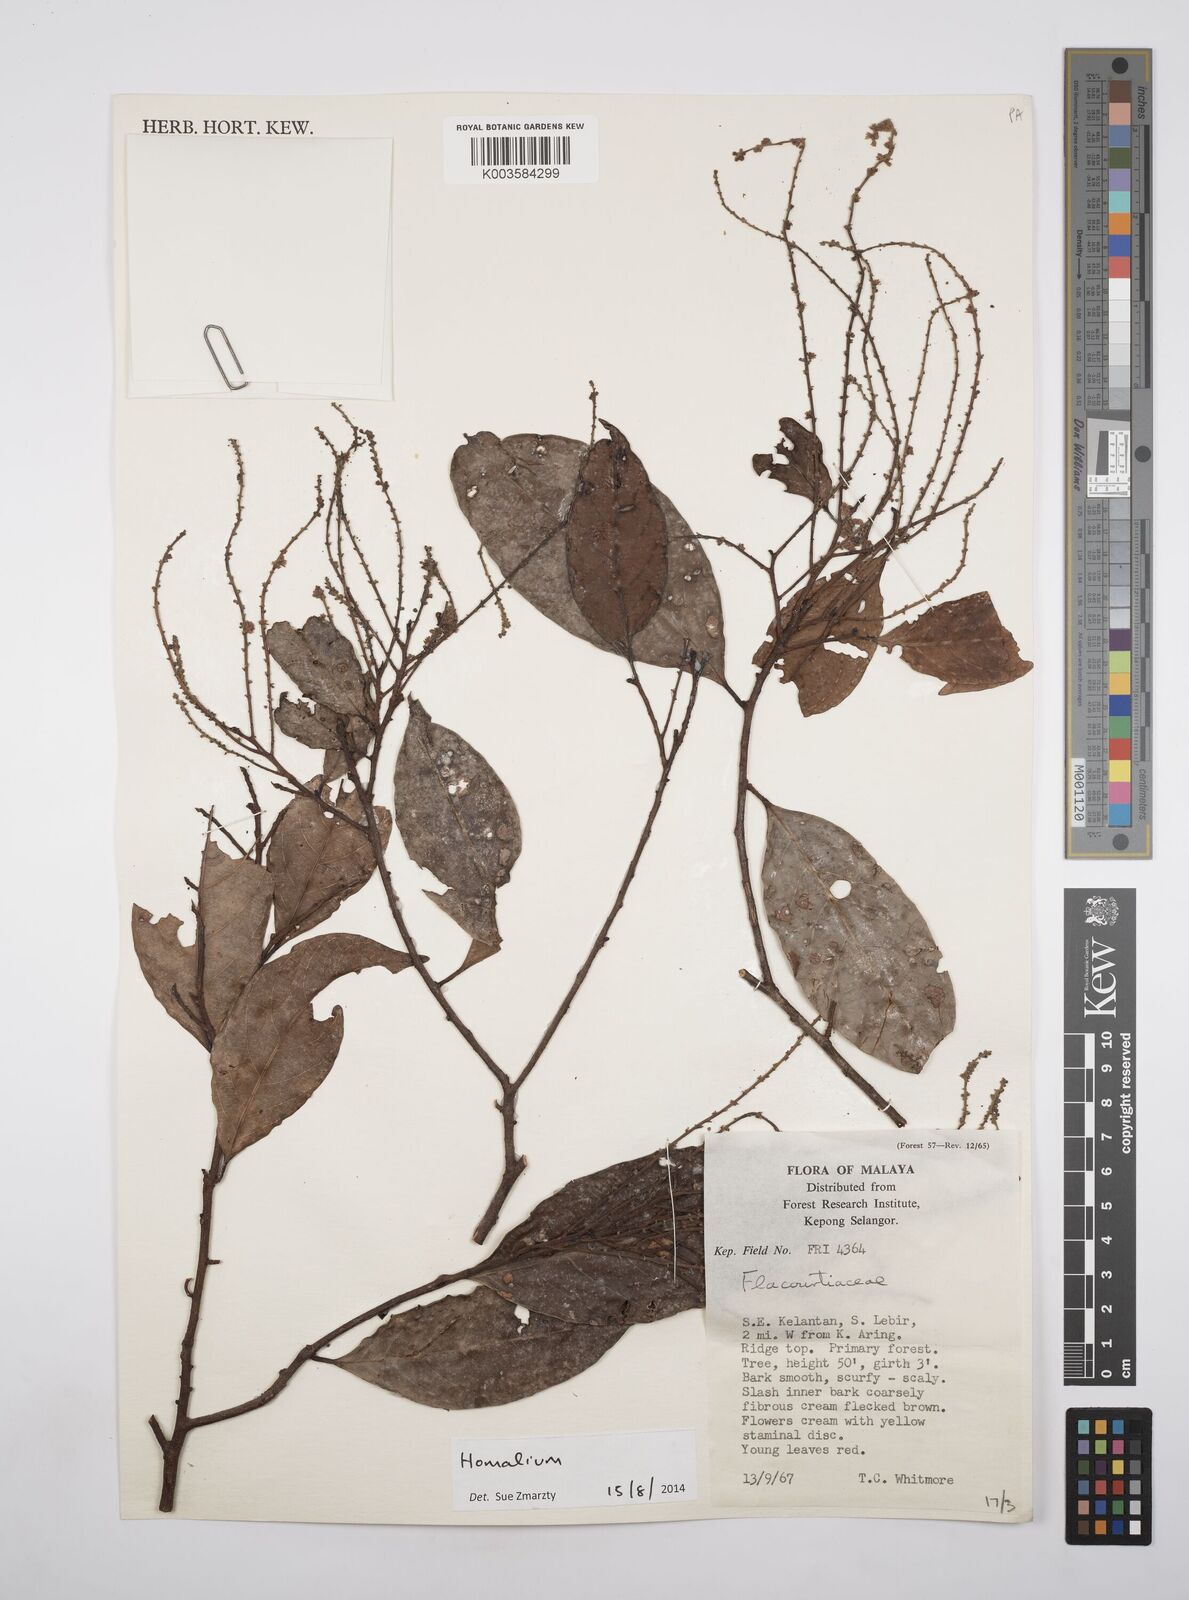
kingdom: Plantae
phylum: Tracheophyta
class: Magnoliopsida
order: Malpighiales
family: Salicaceae
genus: Homalium
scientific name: Homalium
